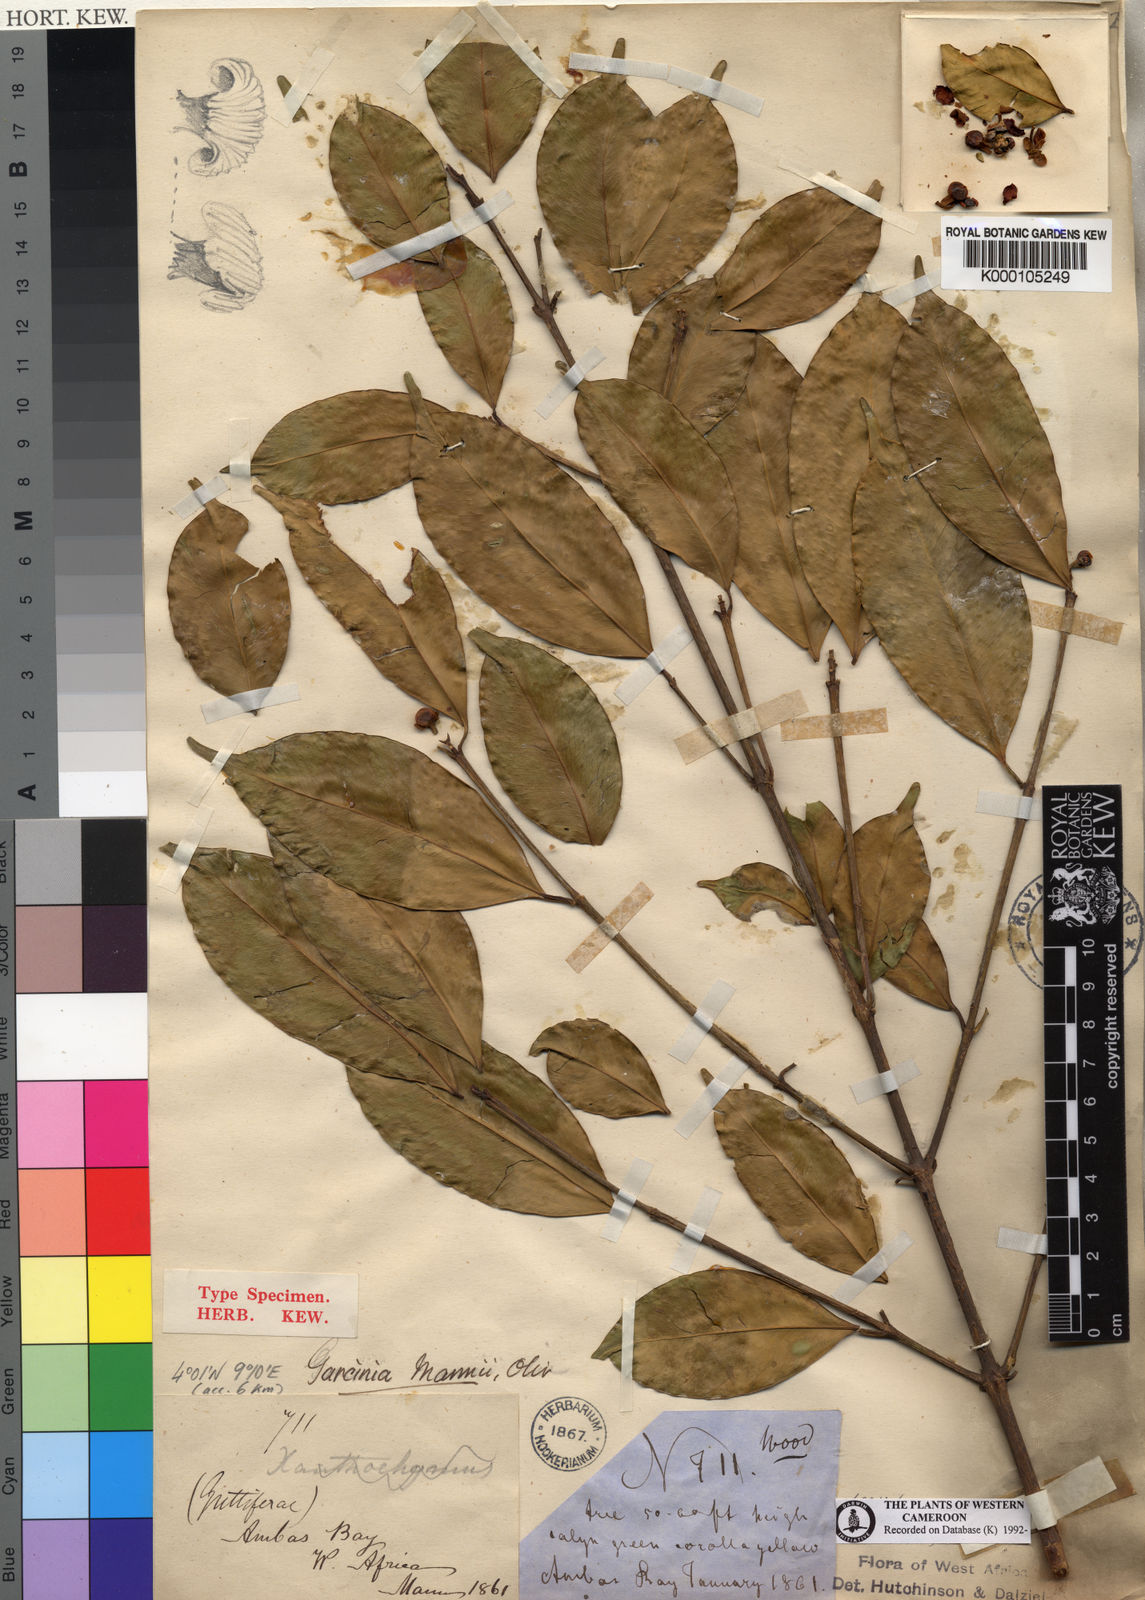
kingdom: Plantae
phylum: Tracheophyta
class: Magnoliopsida
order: Malpighiales
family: Clusiaceae
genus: Garcinia
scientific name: Garcinia mannii
